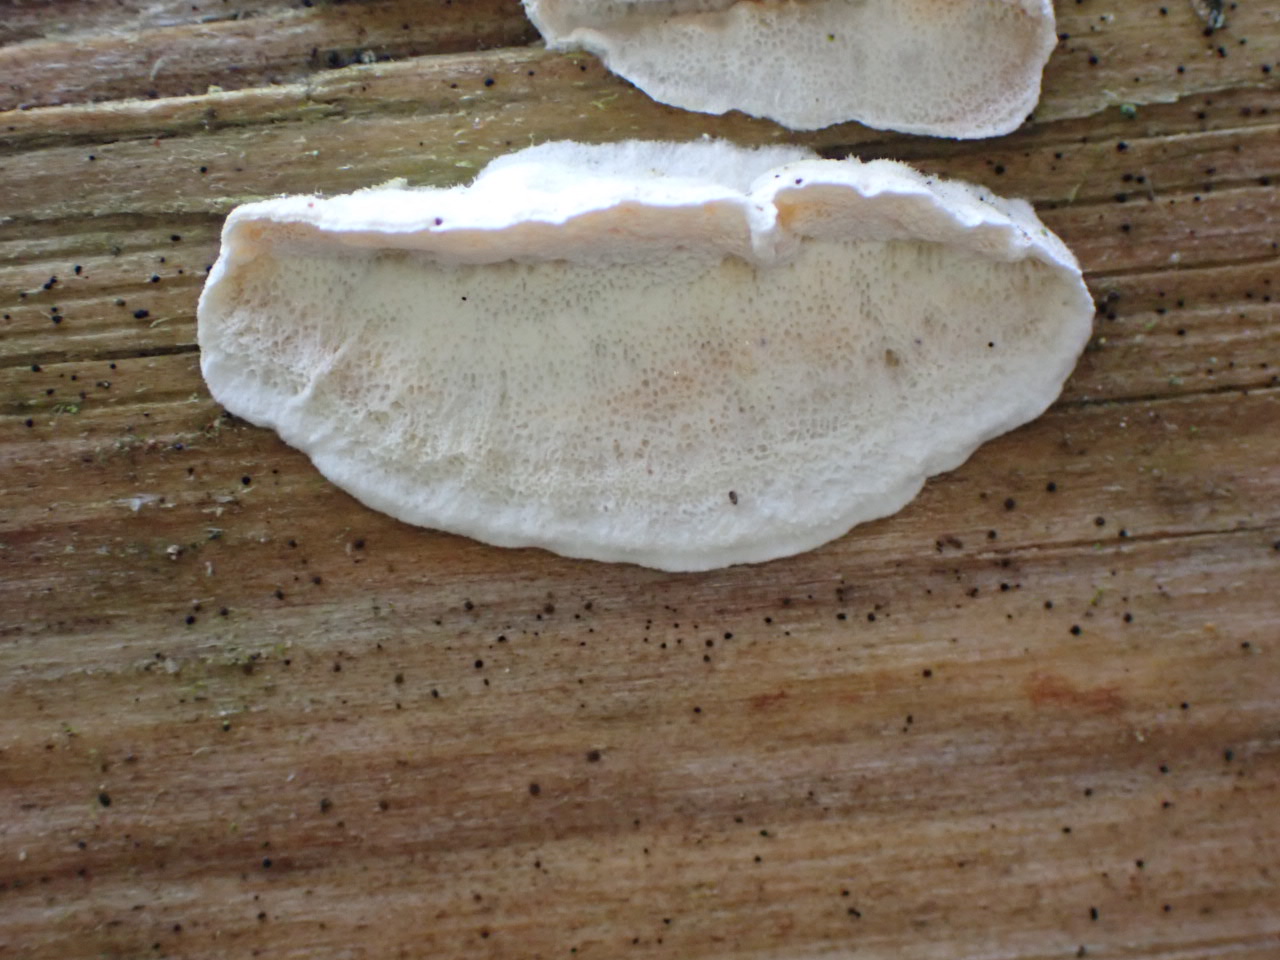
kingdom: Fungi
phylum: Basidiomycota
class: Agaricomycetes
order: Polyporales
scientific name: Polyporales
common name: poresvampordenen
